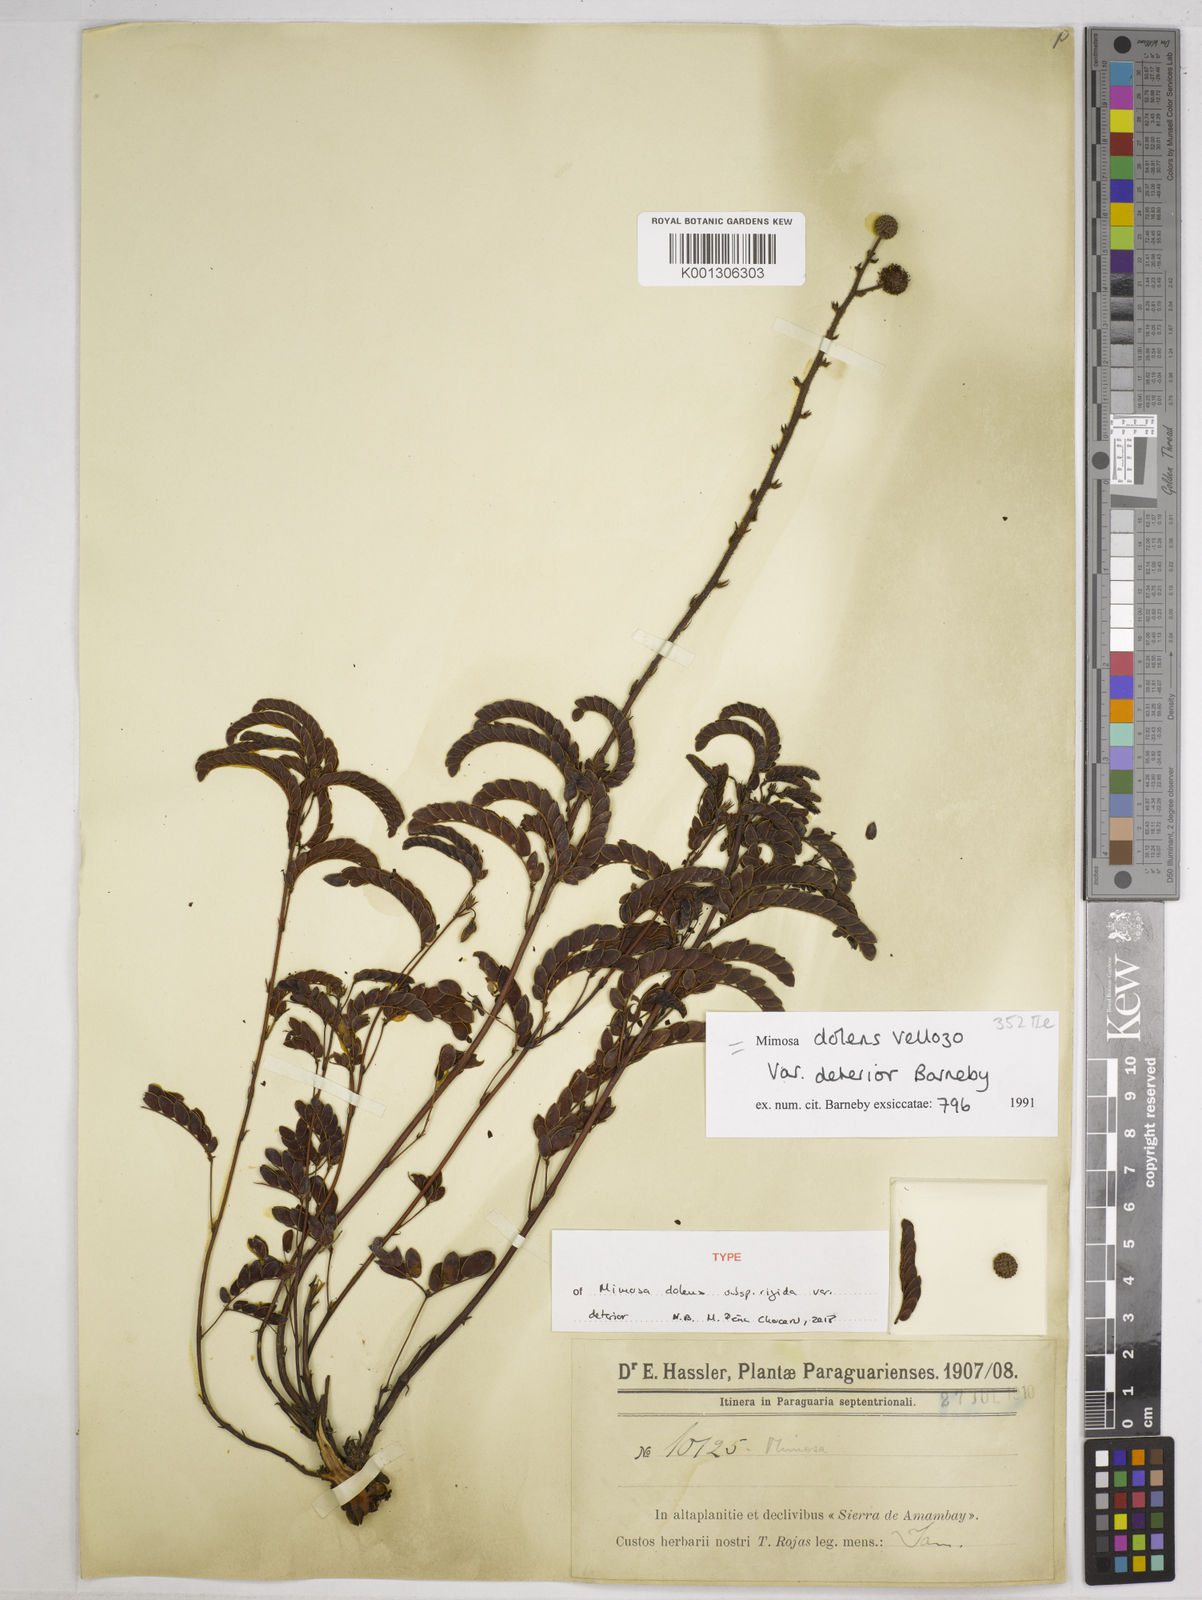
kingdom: Plantae
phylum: Tracheophyta
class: Magnoliopsida
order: Fabales
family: Fabaceae
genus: Mimosa
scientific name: Mimosa dolens
